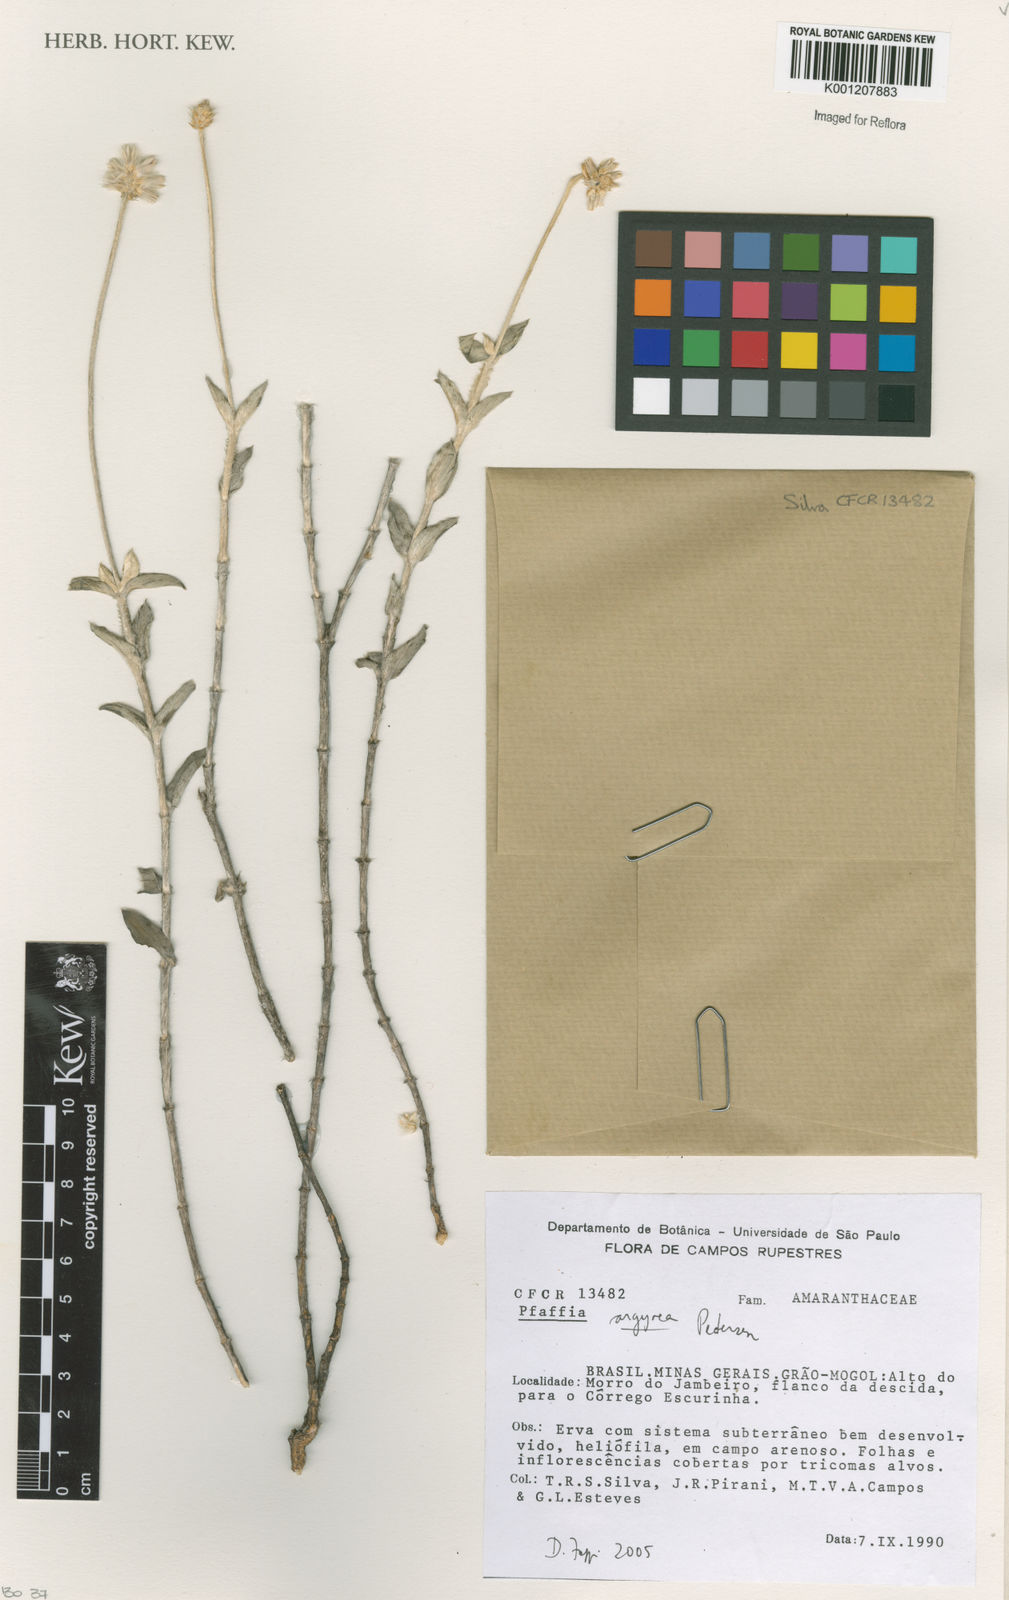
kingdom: Plantae
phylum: Tracheophyta
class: Magnoliopsida
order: Caryophyllales
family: Amaranthaceae
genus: Pfaffia
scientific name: Pfaffia argyrea
